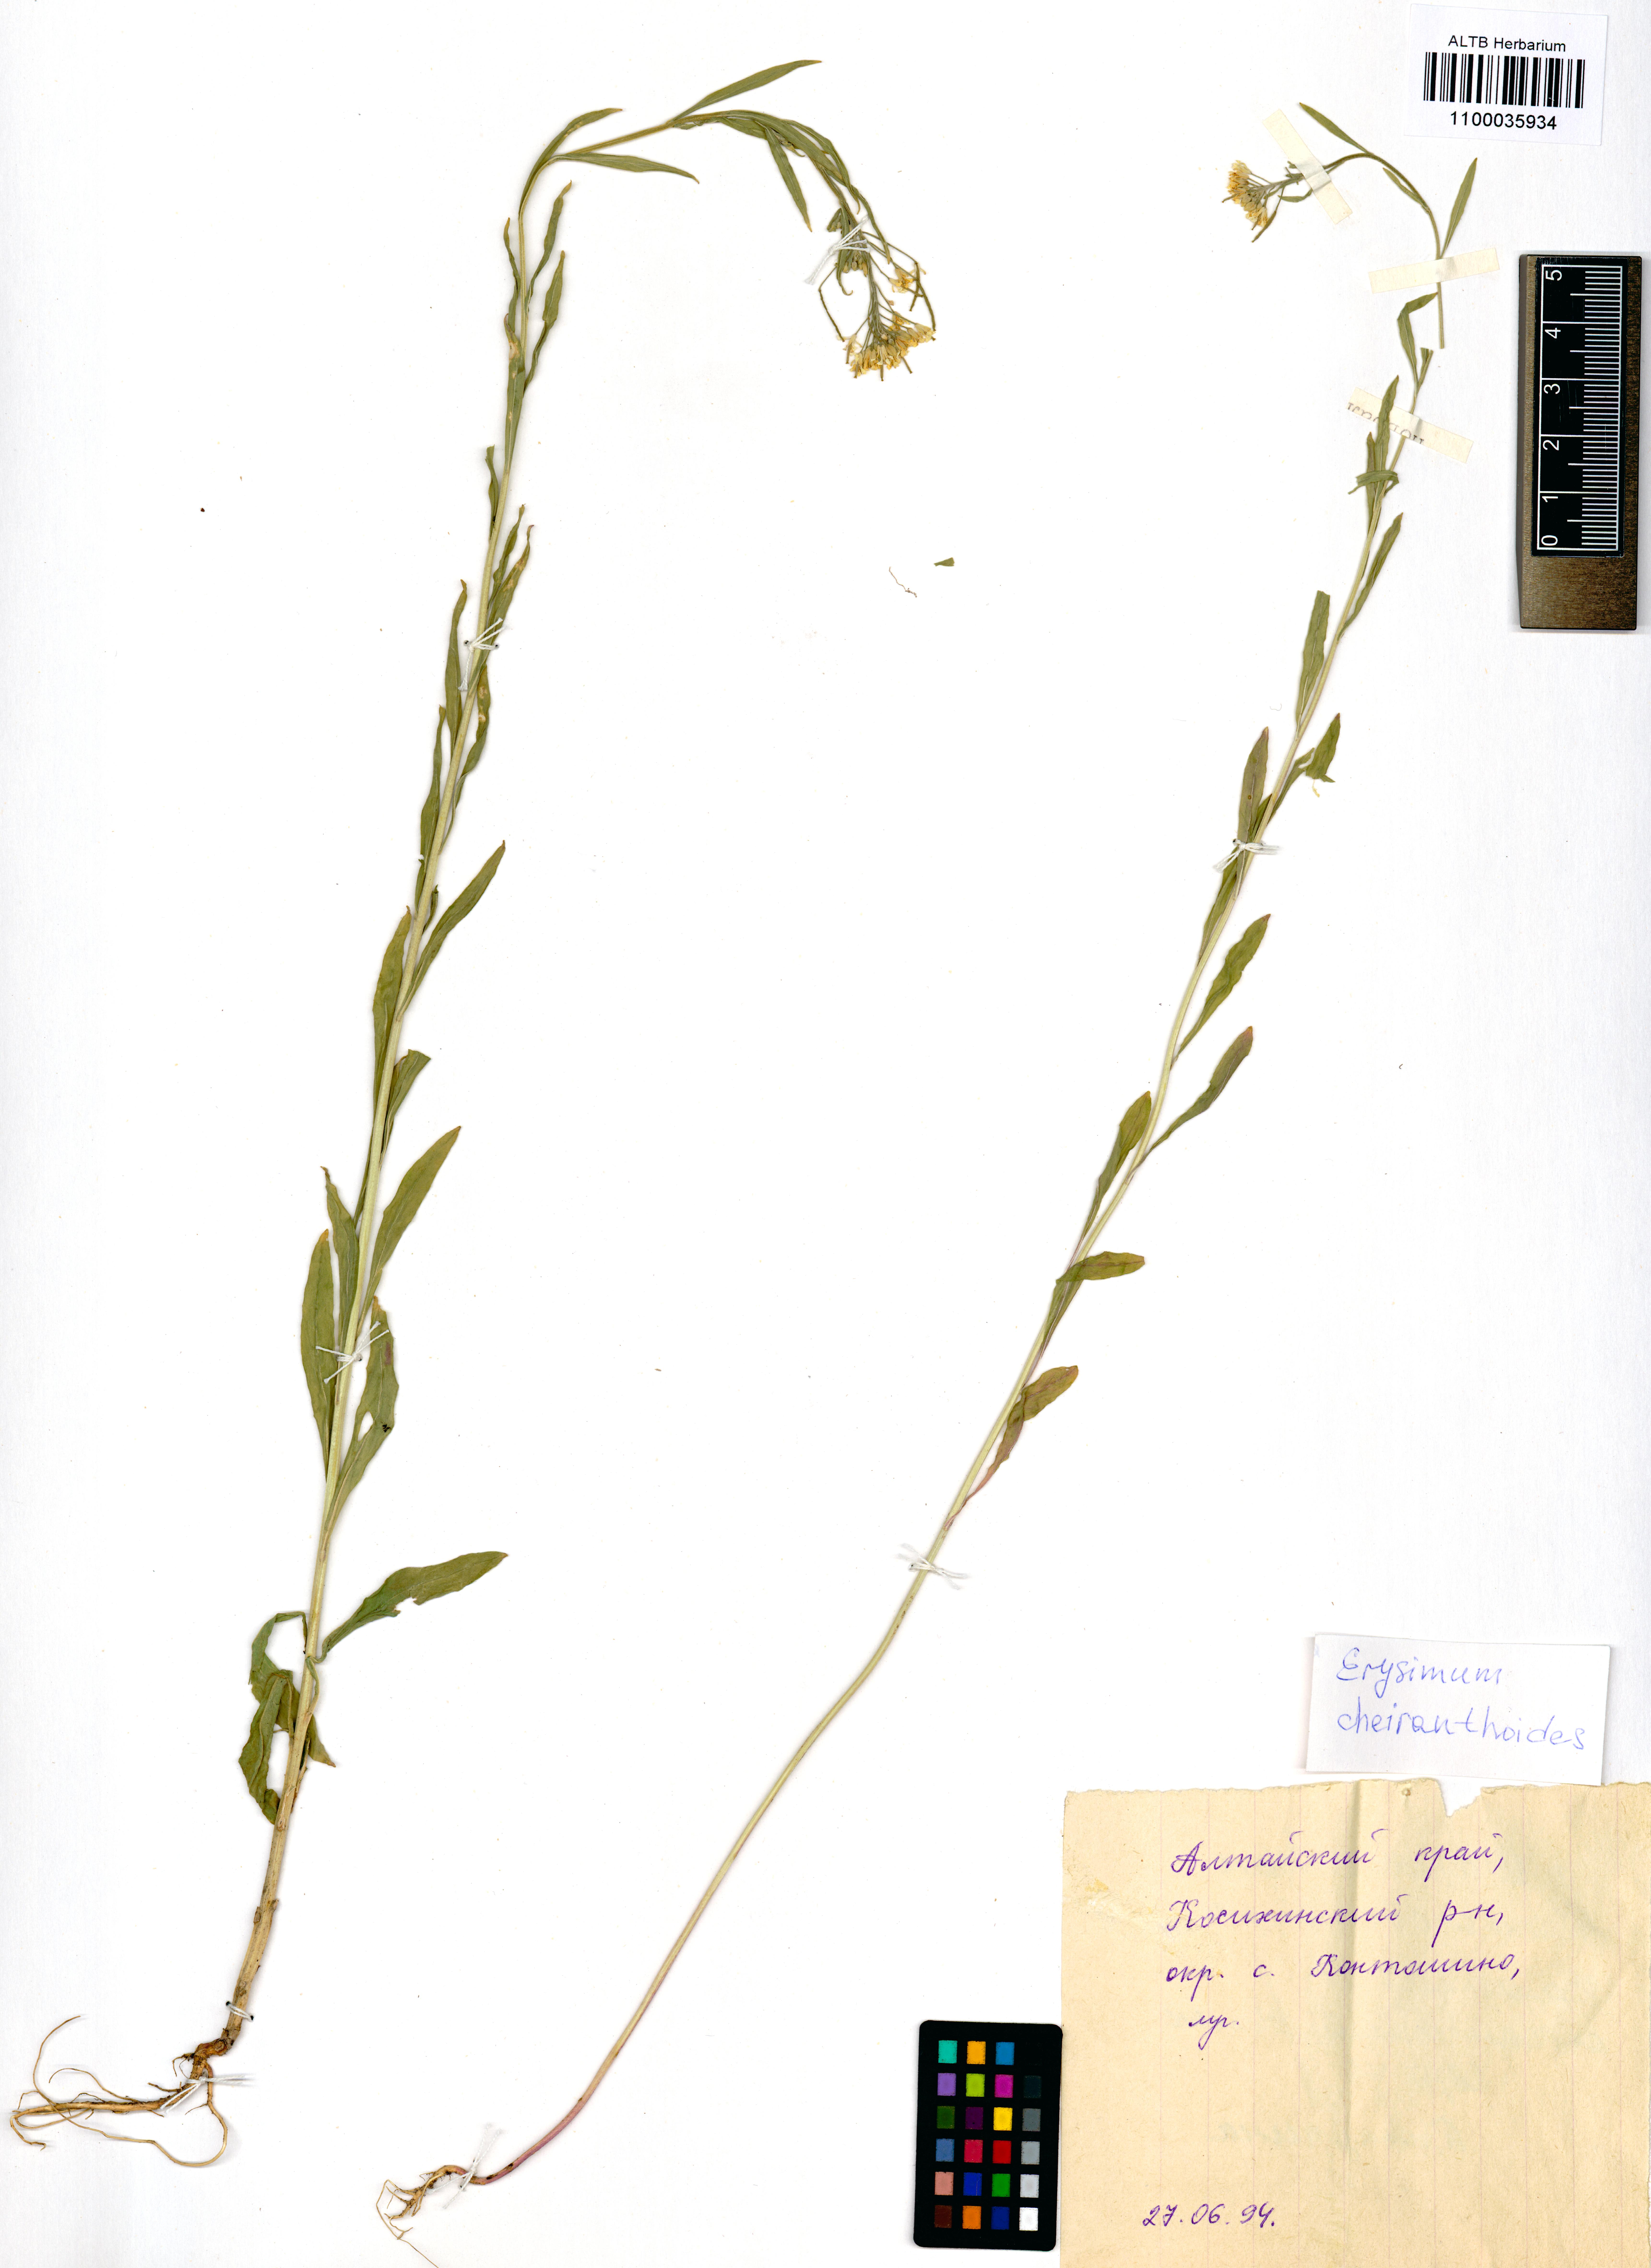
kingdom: Plantae
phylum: Tracheophyta
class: Magnoliopsida
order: Brassicales
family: Brassicaceae
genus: Erysimum
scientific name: Erysimum cheiranthoides
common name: Treacle mustard
